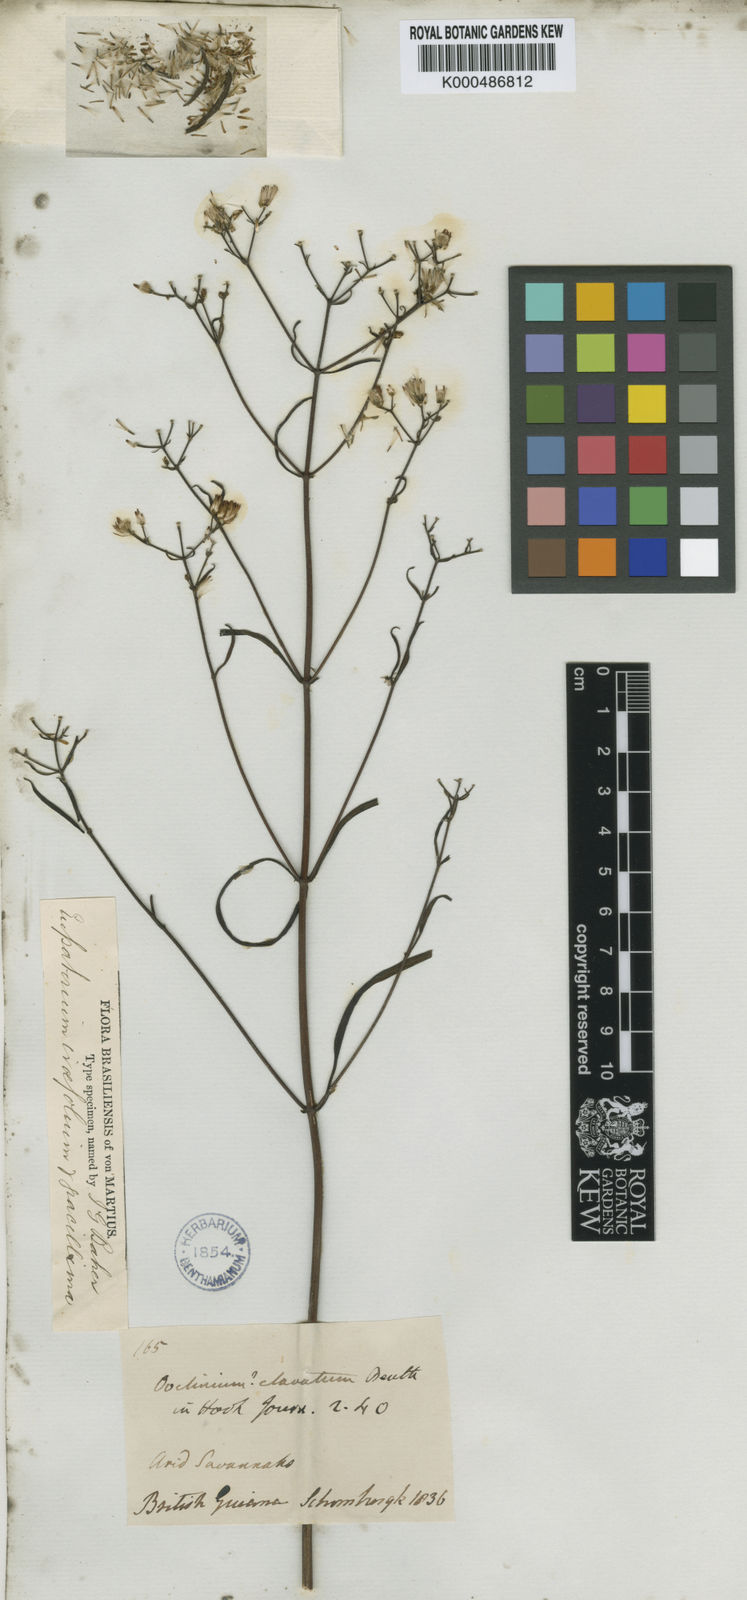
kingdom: Plantae
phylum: Tracheophyta
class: Magnoliopsida
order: Asterales
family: Asteraceae
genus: Chromolaena
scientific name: Chromolaena ivifolia
